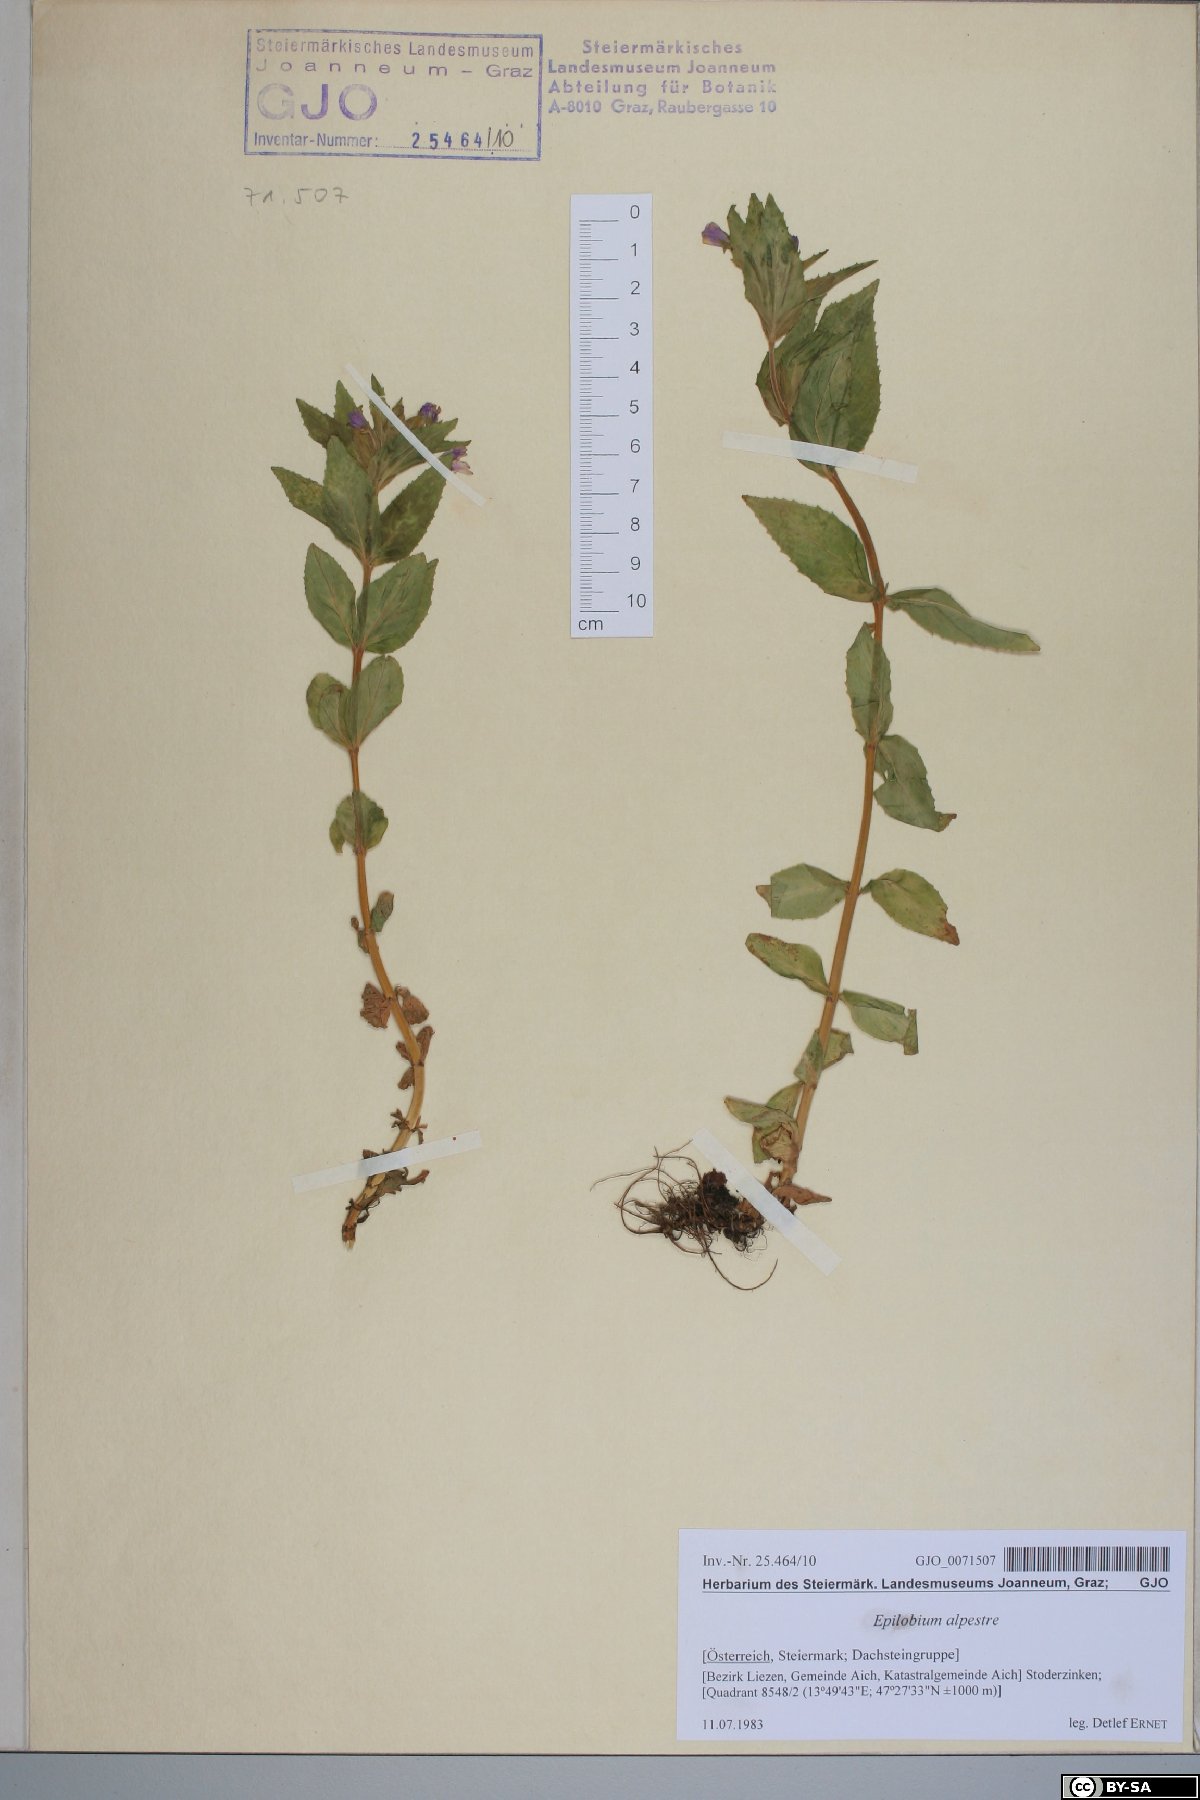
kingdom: Plantae
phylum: Tracheophyta
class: Magnoliopsida
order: Myrtales
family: Onagraceae
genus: Epilobium
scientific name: Epilobium alpestre
